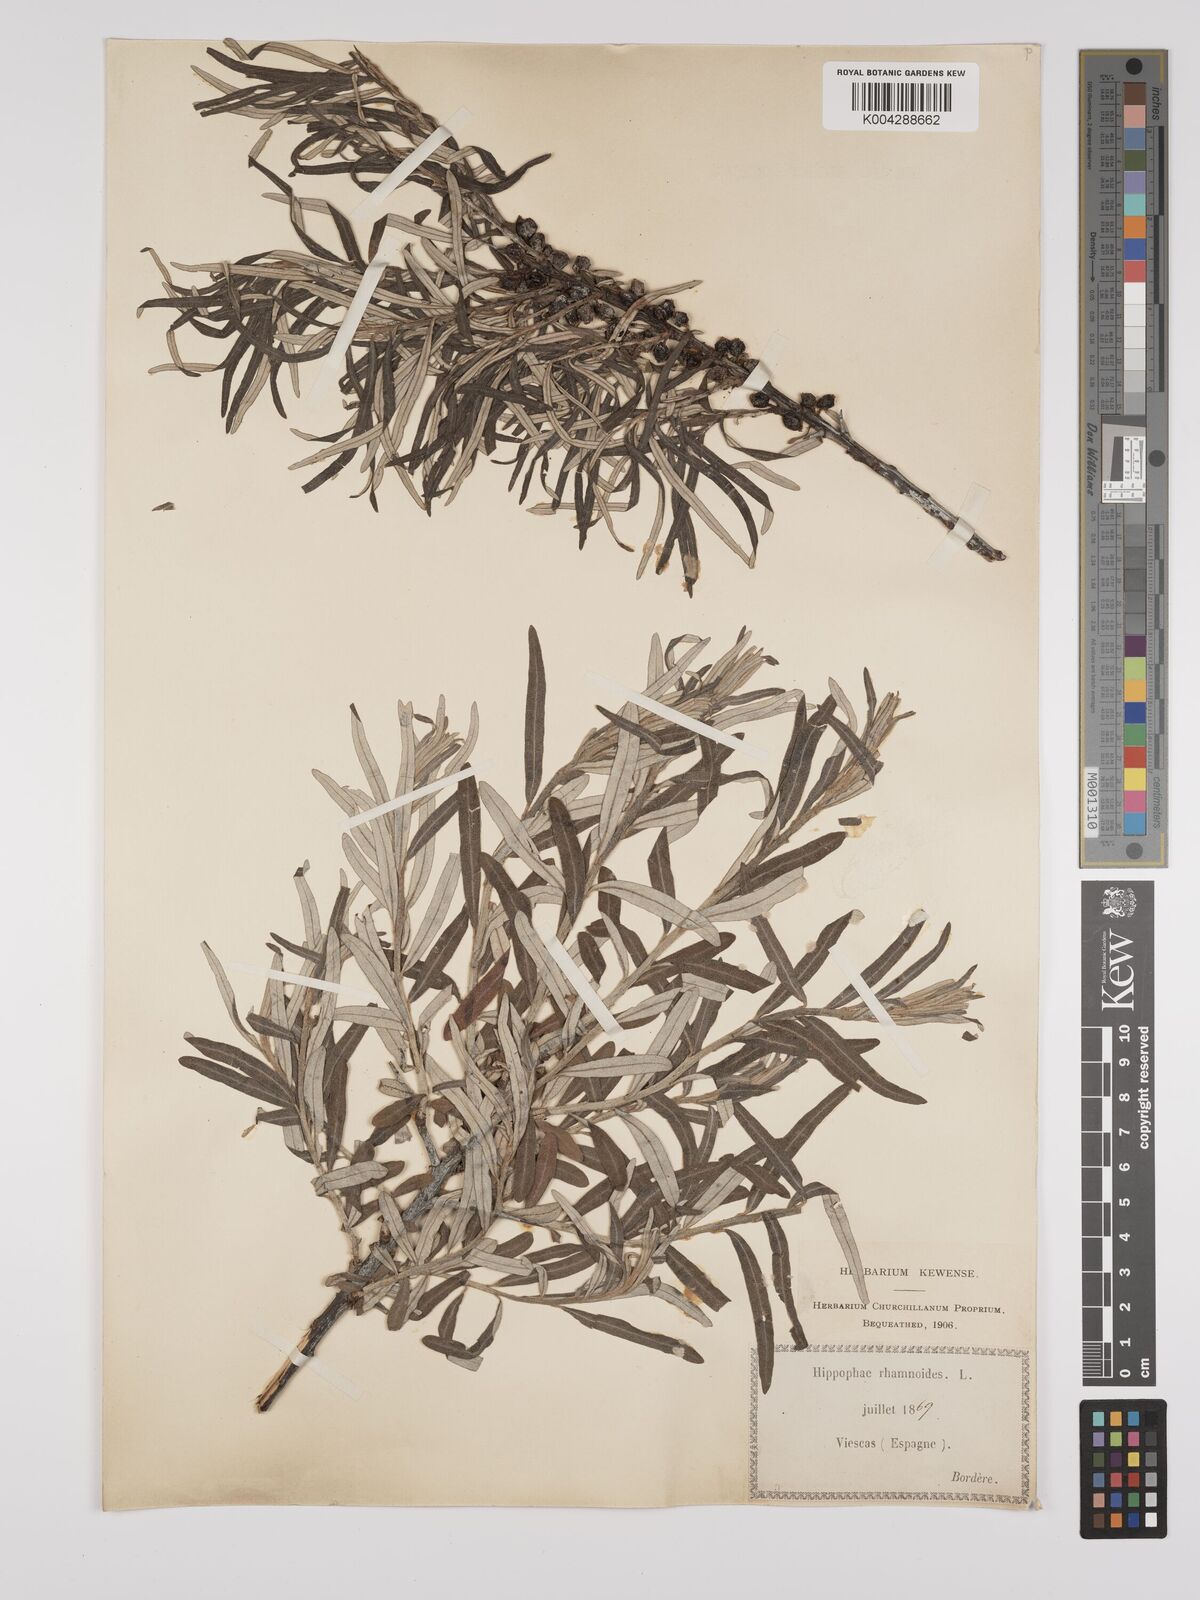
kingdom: Plantae
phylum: Tracheophyta
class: Magnoliopsida
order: Rosales
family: Elaeagnaceae
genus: Hippophae
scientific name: Hippophae rhamnoides
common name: Sea-buckthorn
